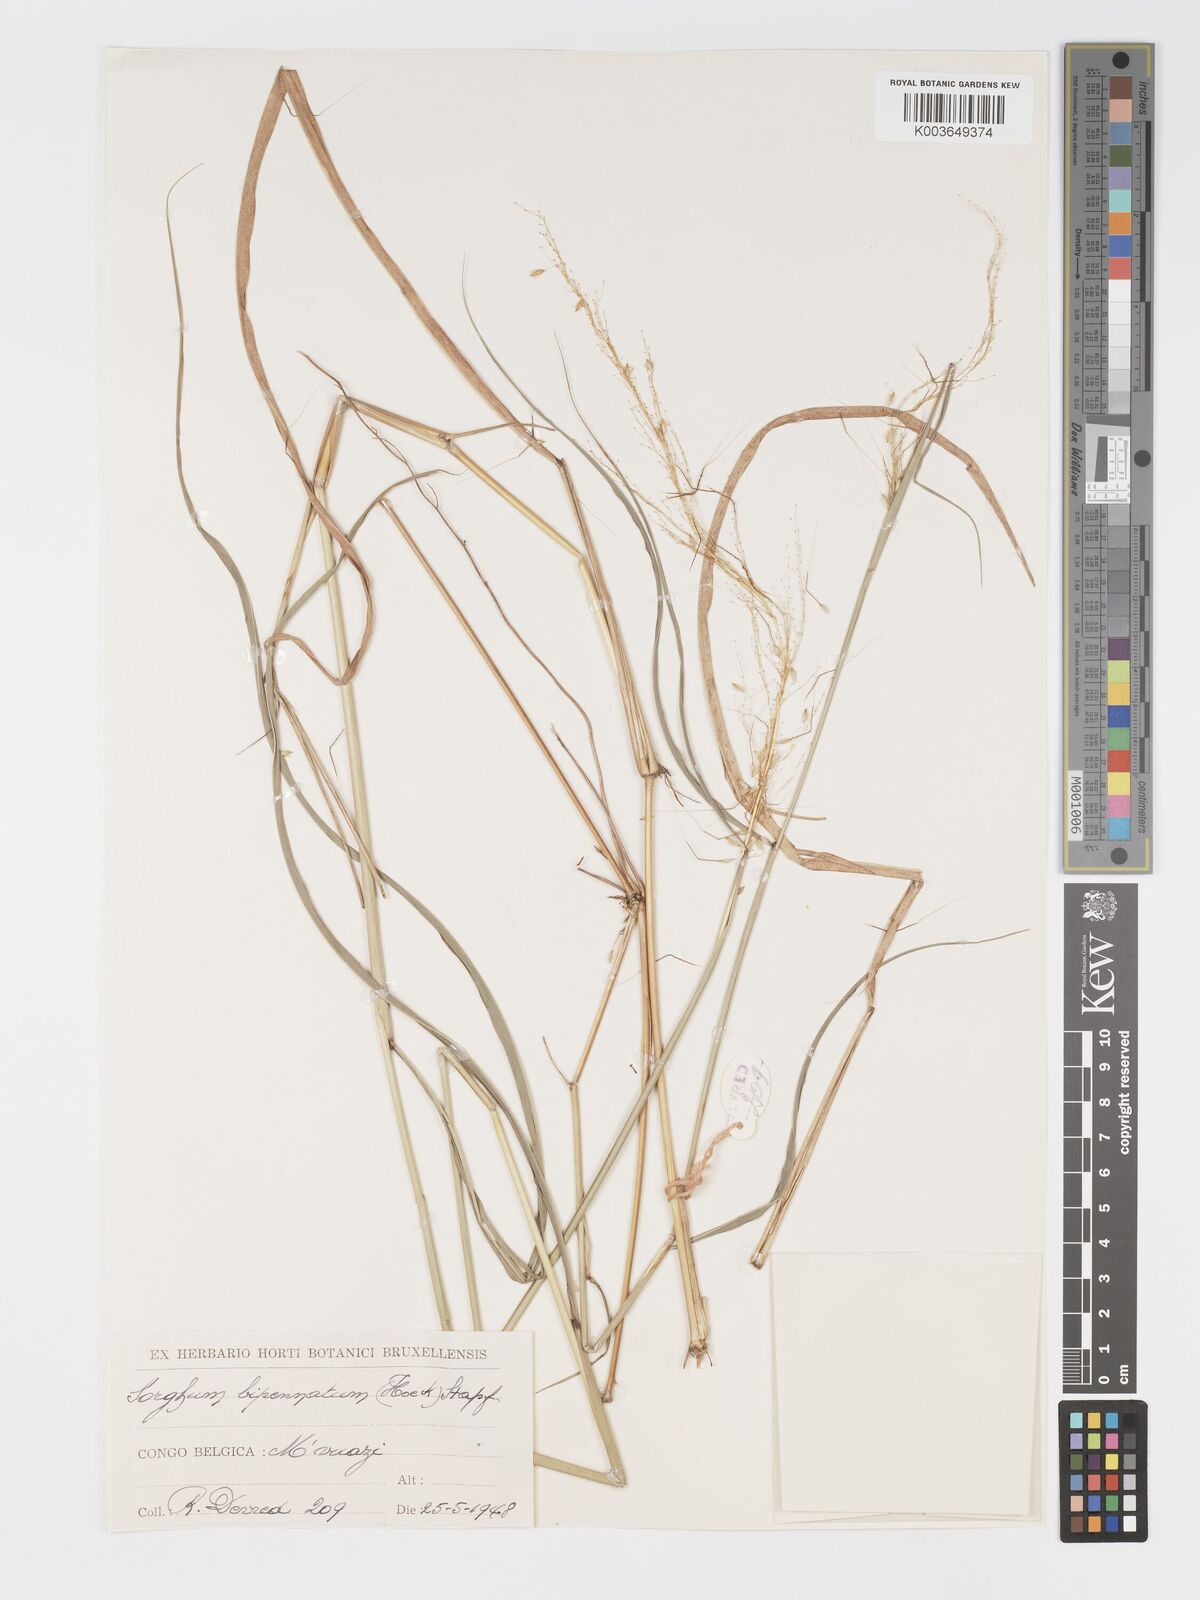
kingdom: Plantae
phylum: Tracheophyta
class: Liliopsida
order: Poales
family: Poaceae
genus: Sorghastrum
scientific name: Sorghastrum incompletum
